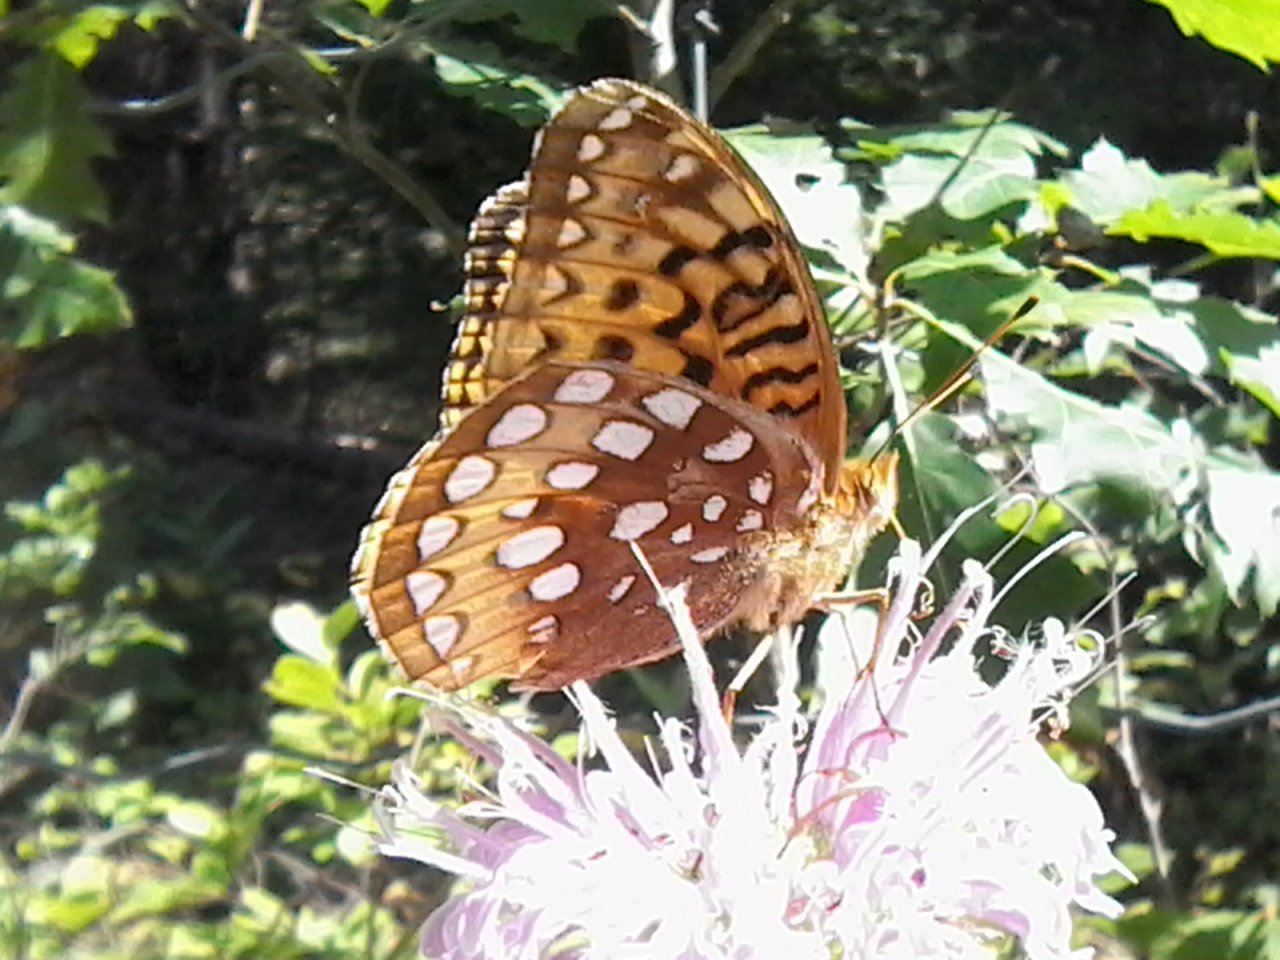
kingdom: Animalia
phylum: Arthropoda
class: Insecta
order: Lepidoptera
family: Nymphalidae
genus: Speyeria
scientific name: Speyeria cybele
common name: Great Spangled Fritillary
